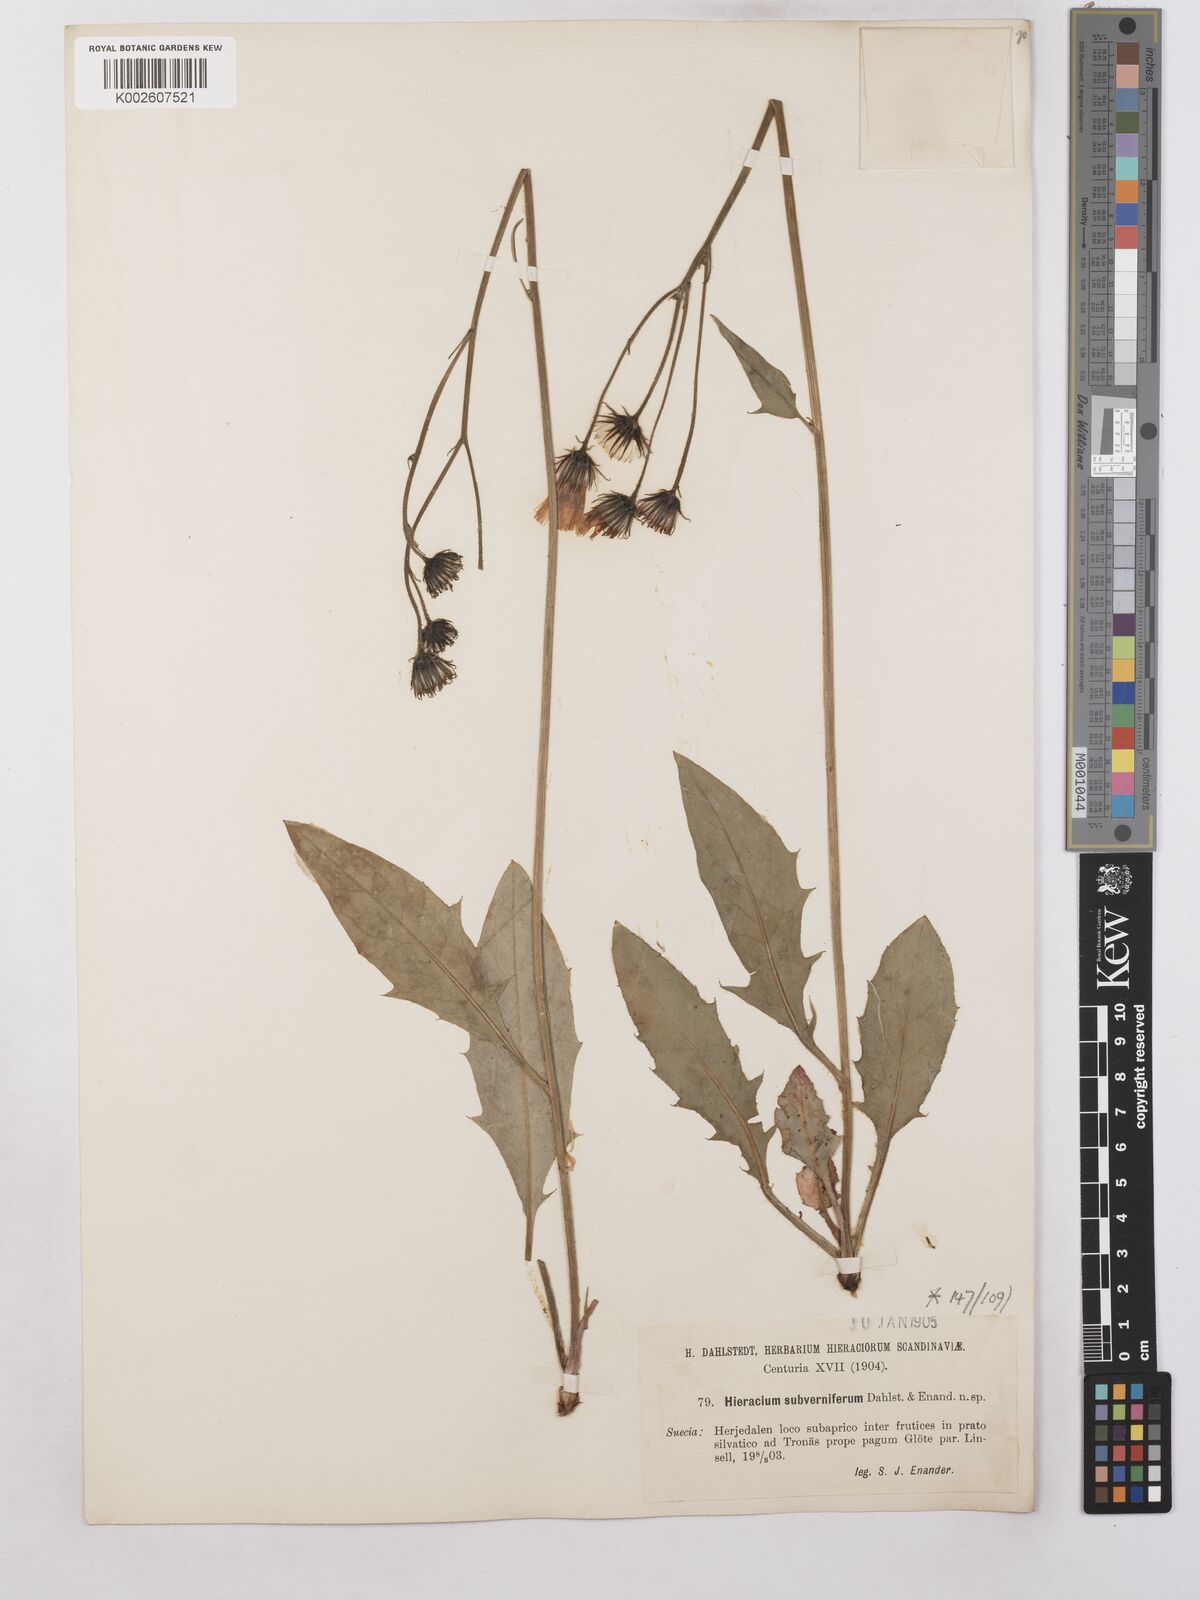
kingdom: Plantae
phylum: Tracheophyta
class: Magnoliopsida
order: Asterales
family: Asteraceae
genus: Hieracium
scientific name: Hieracium caesium
